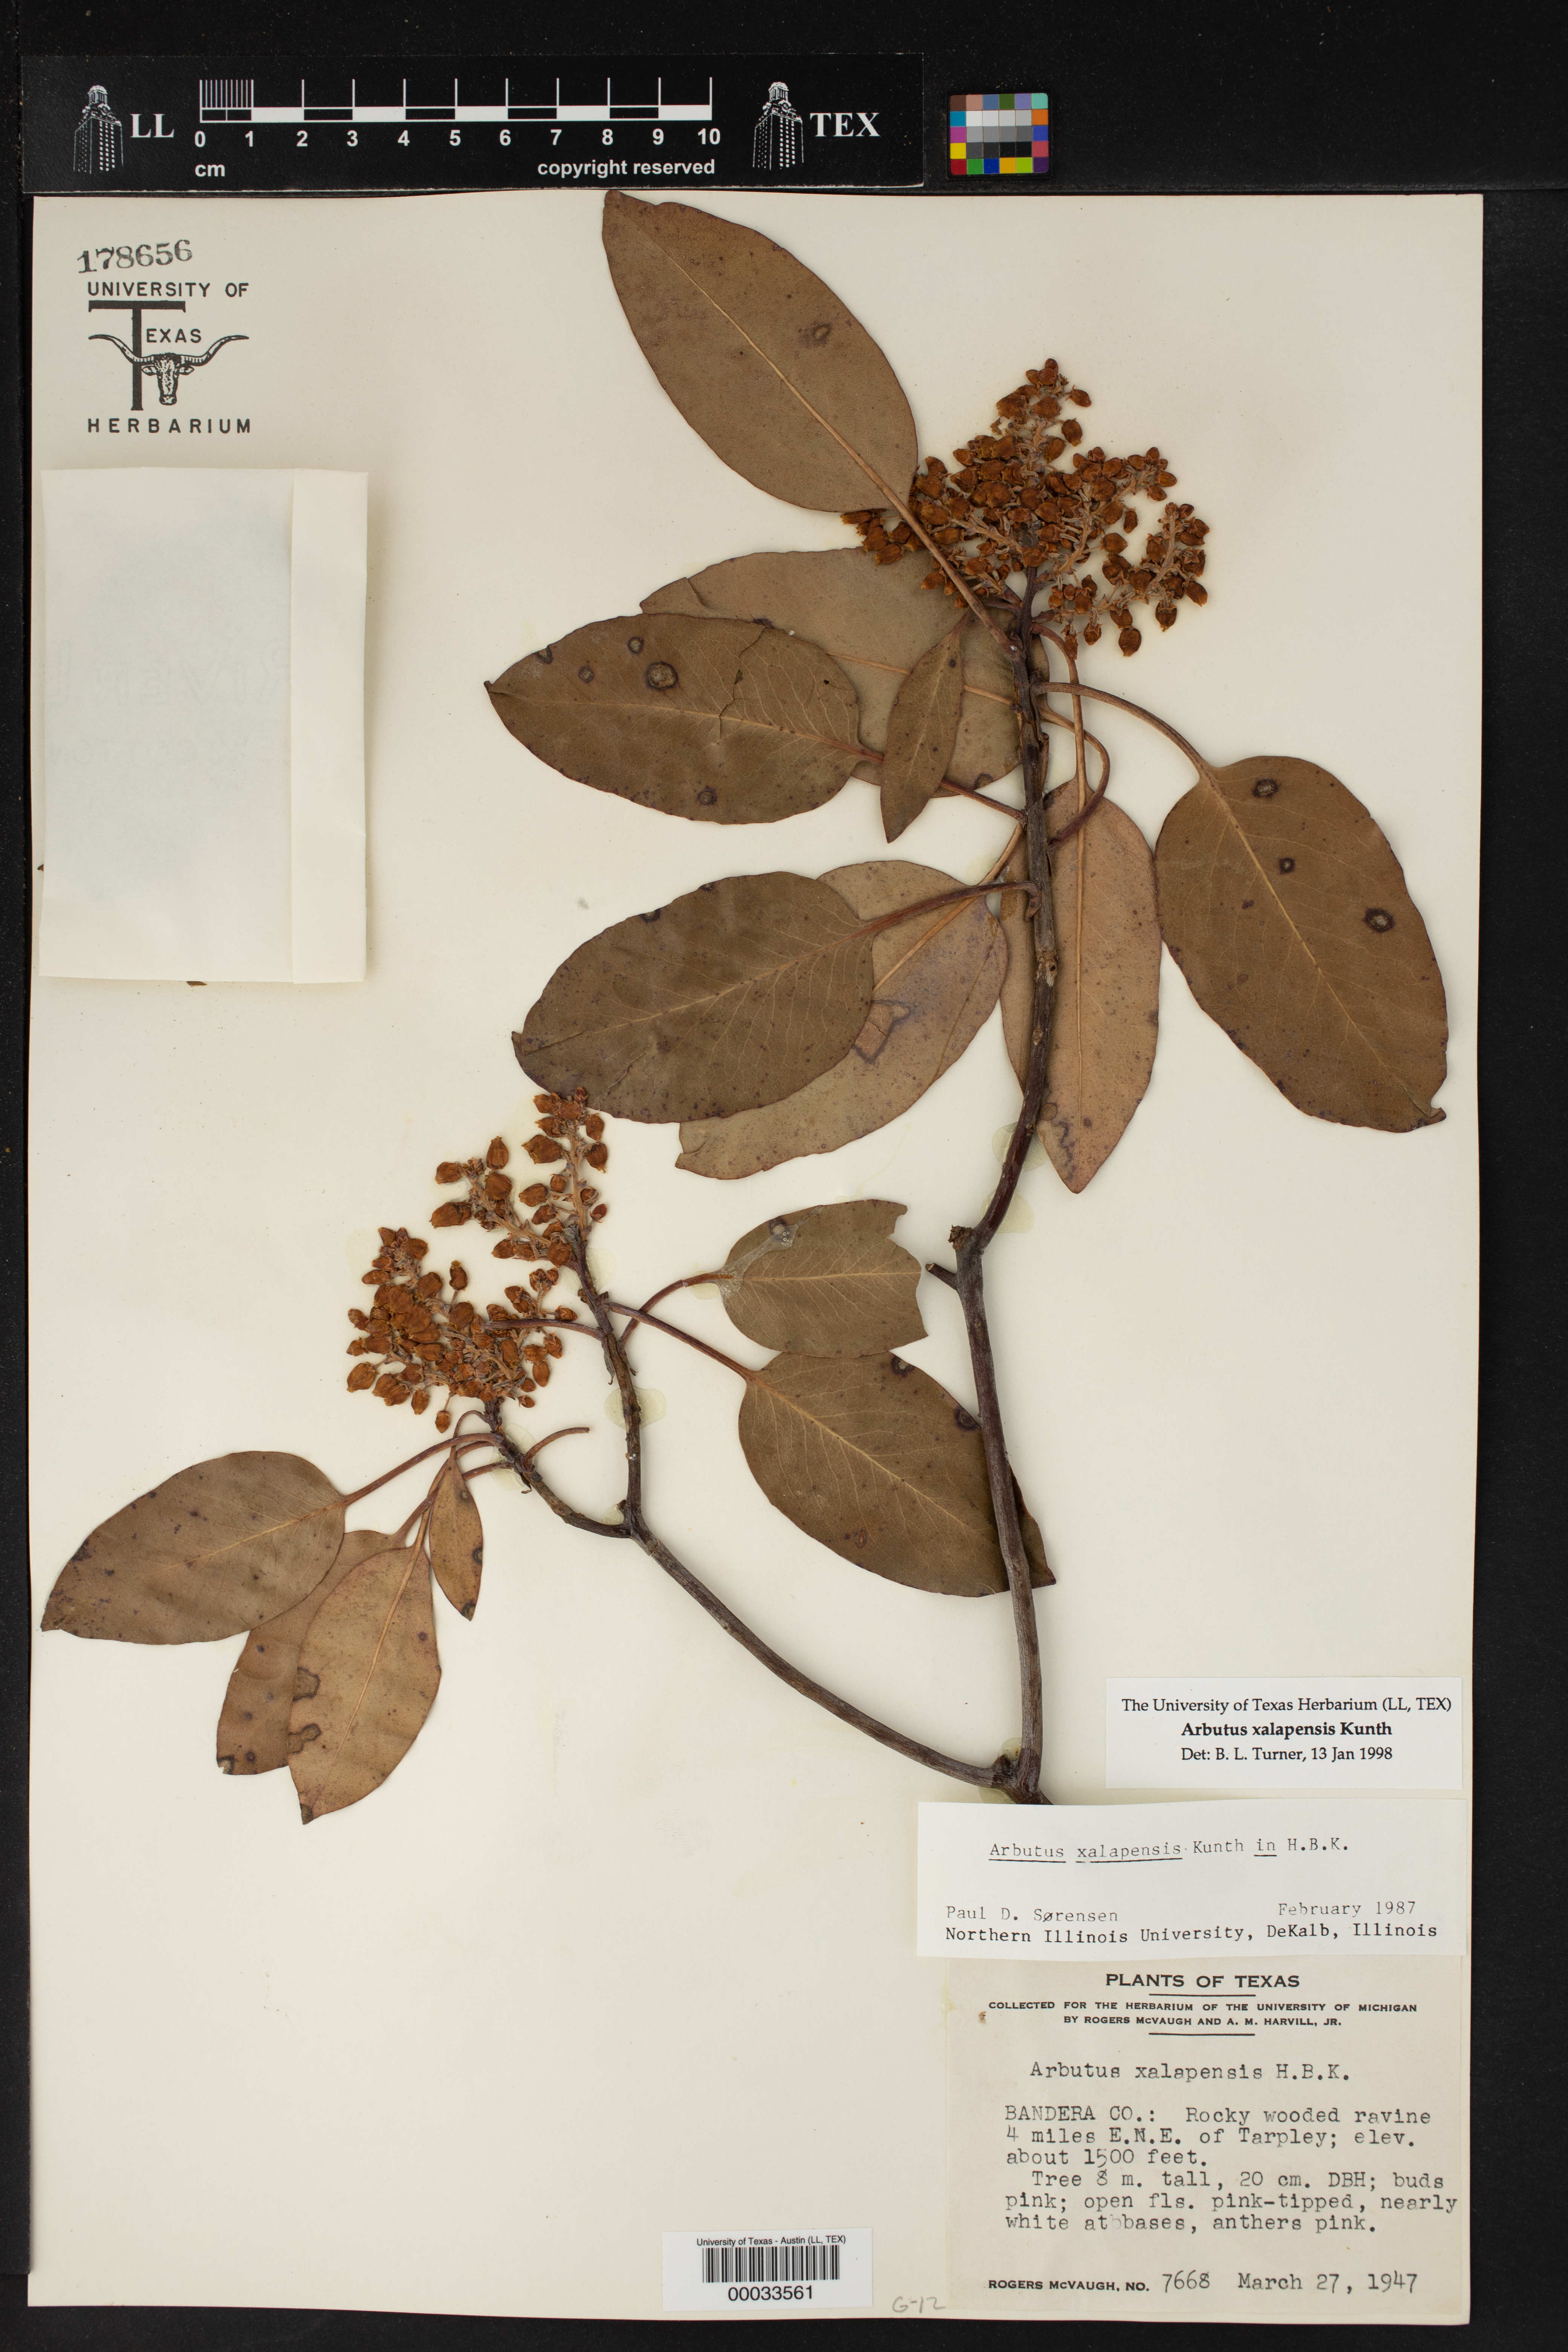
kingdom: Plantae
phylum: Tracheophyta
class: Magnoliopsida
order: Ericales
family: Ericaceae
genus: Arbutus
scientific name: Arbutus xalapensis
